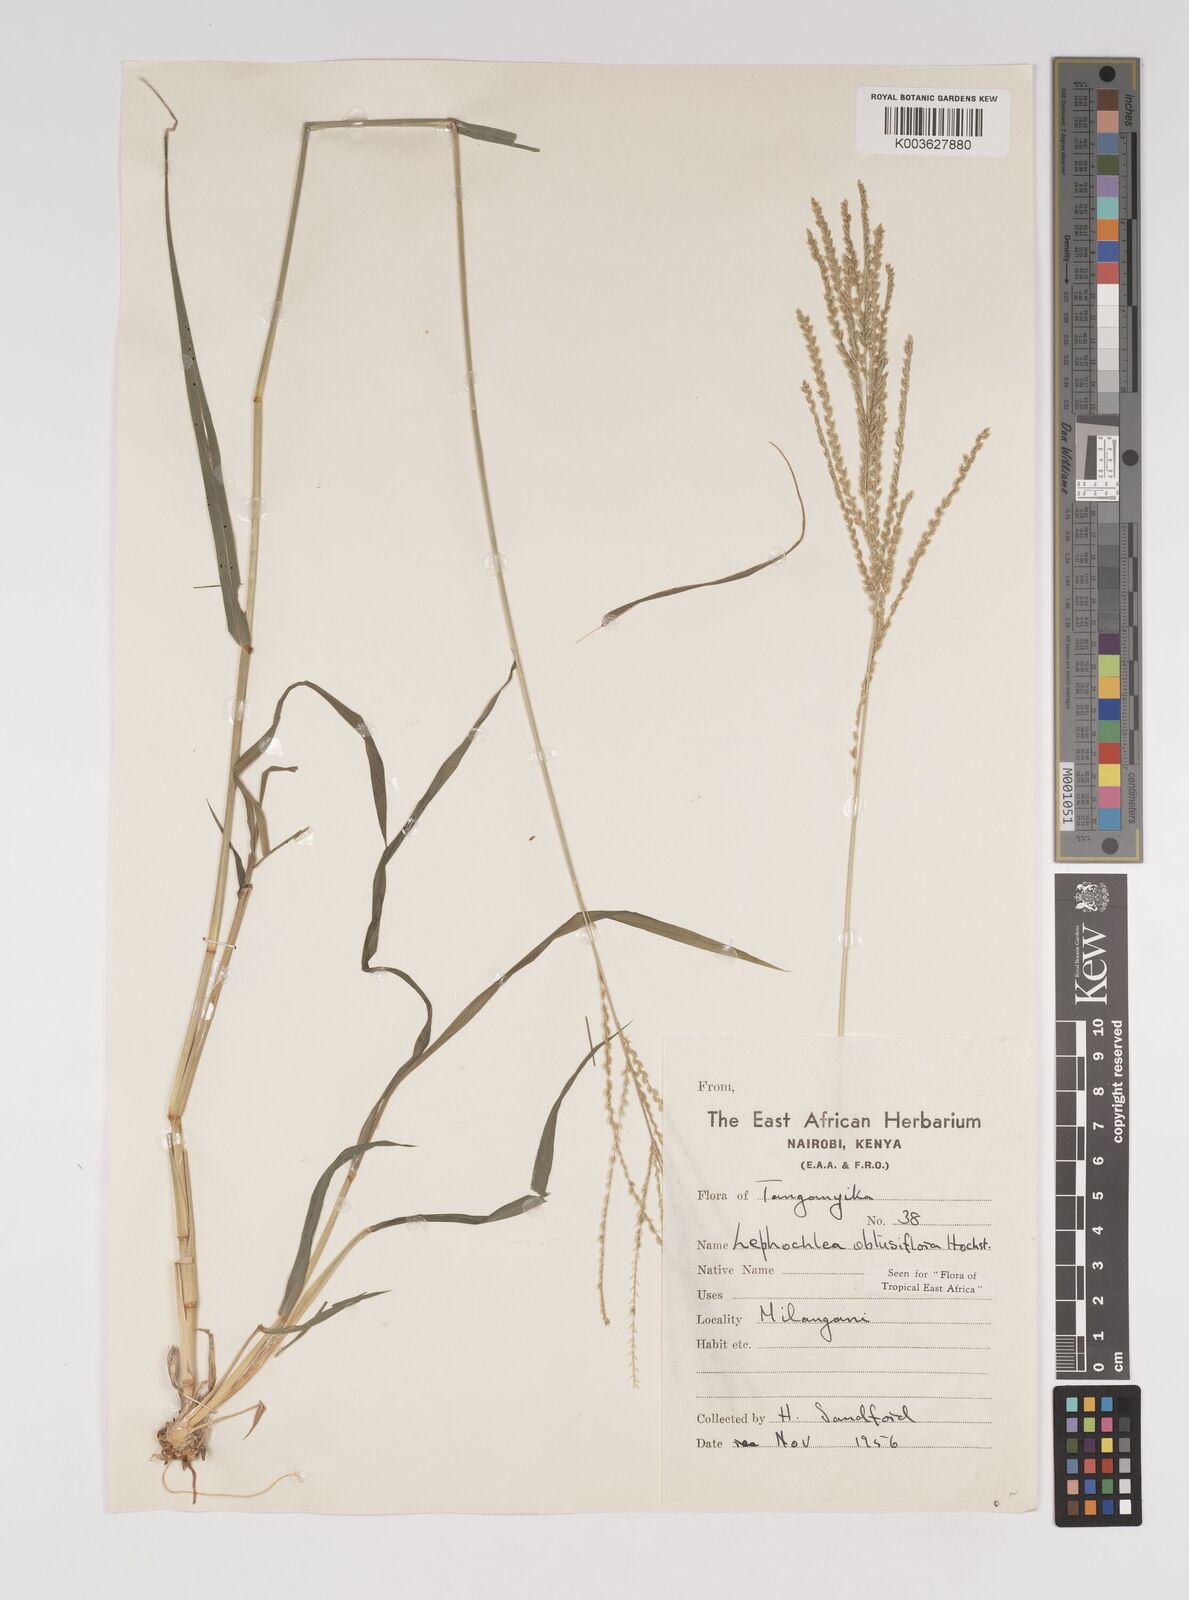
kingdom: Plantae
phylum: Tracheophyta
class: Liliopsida
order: Poales
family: Poaceae
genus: Disakisperma
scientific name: Disakisperma obtusiflorum
